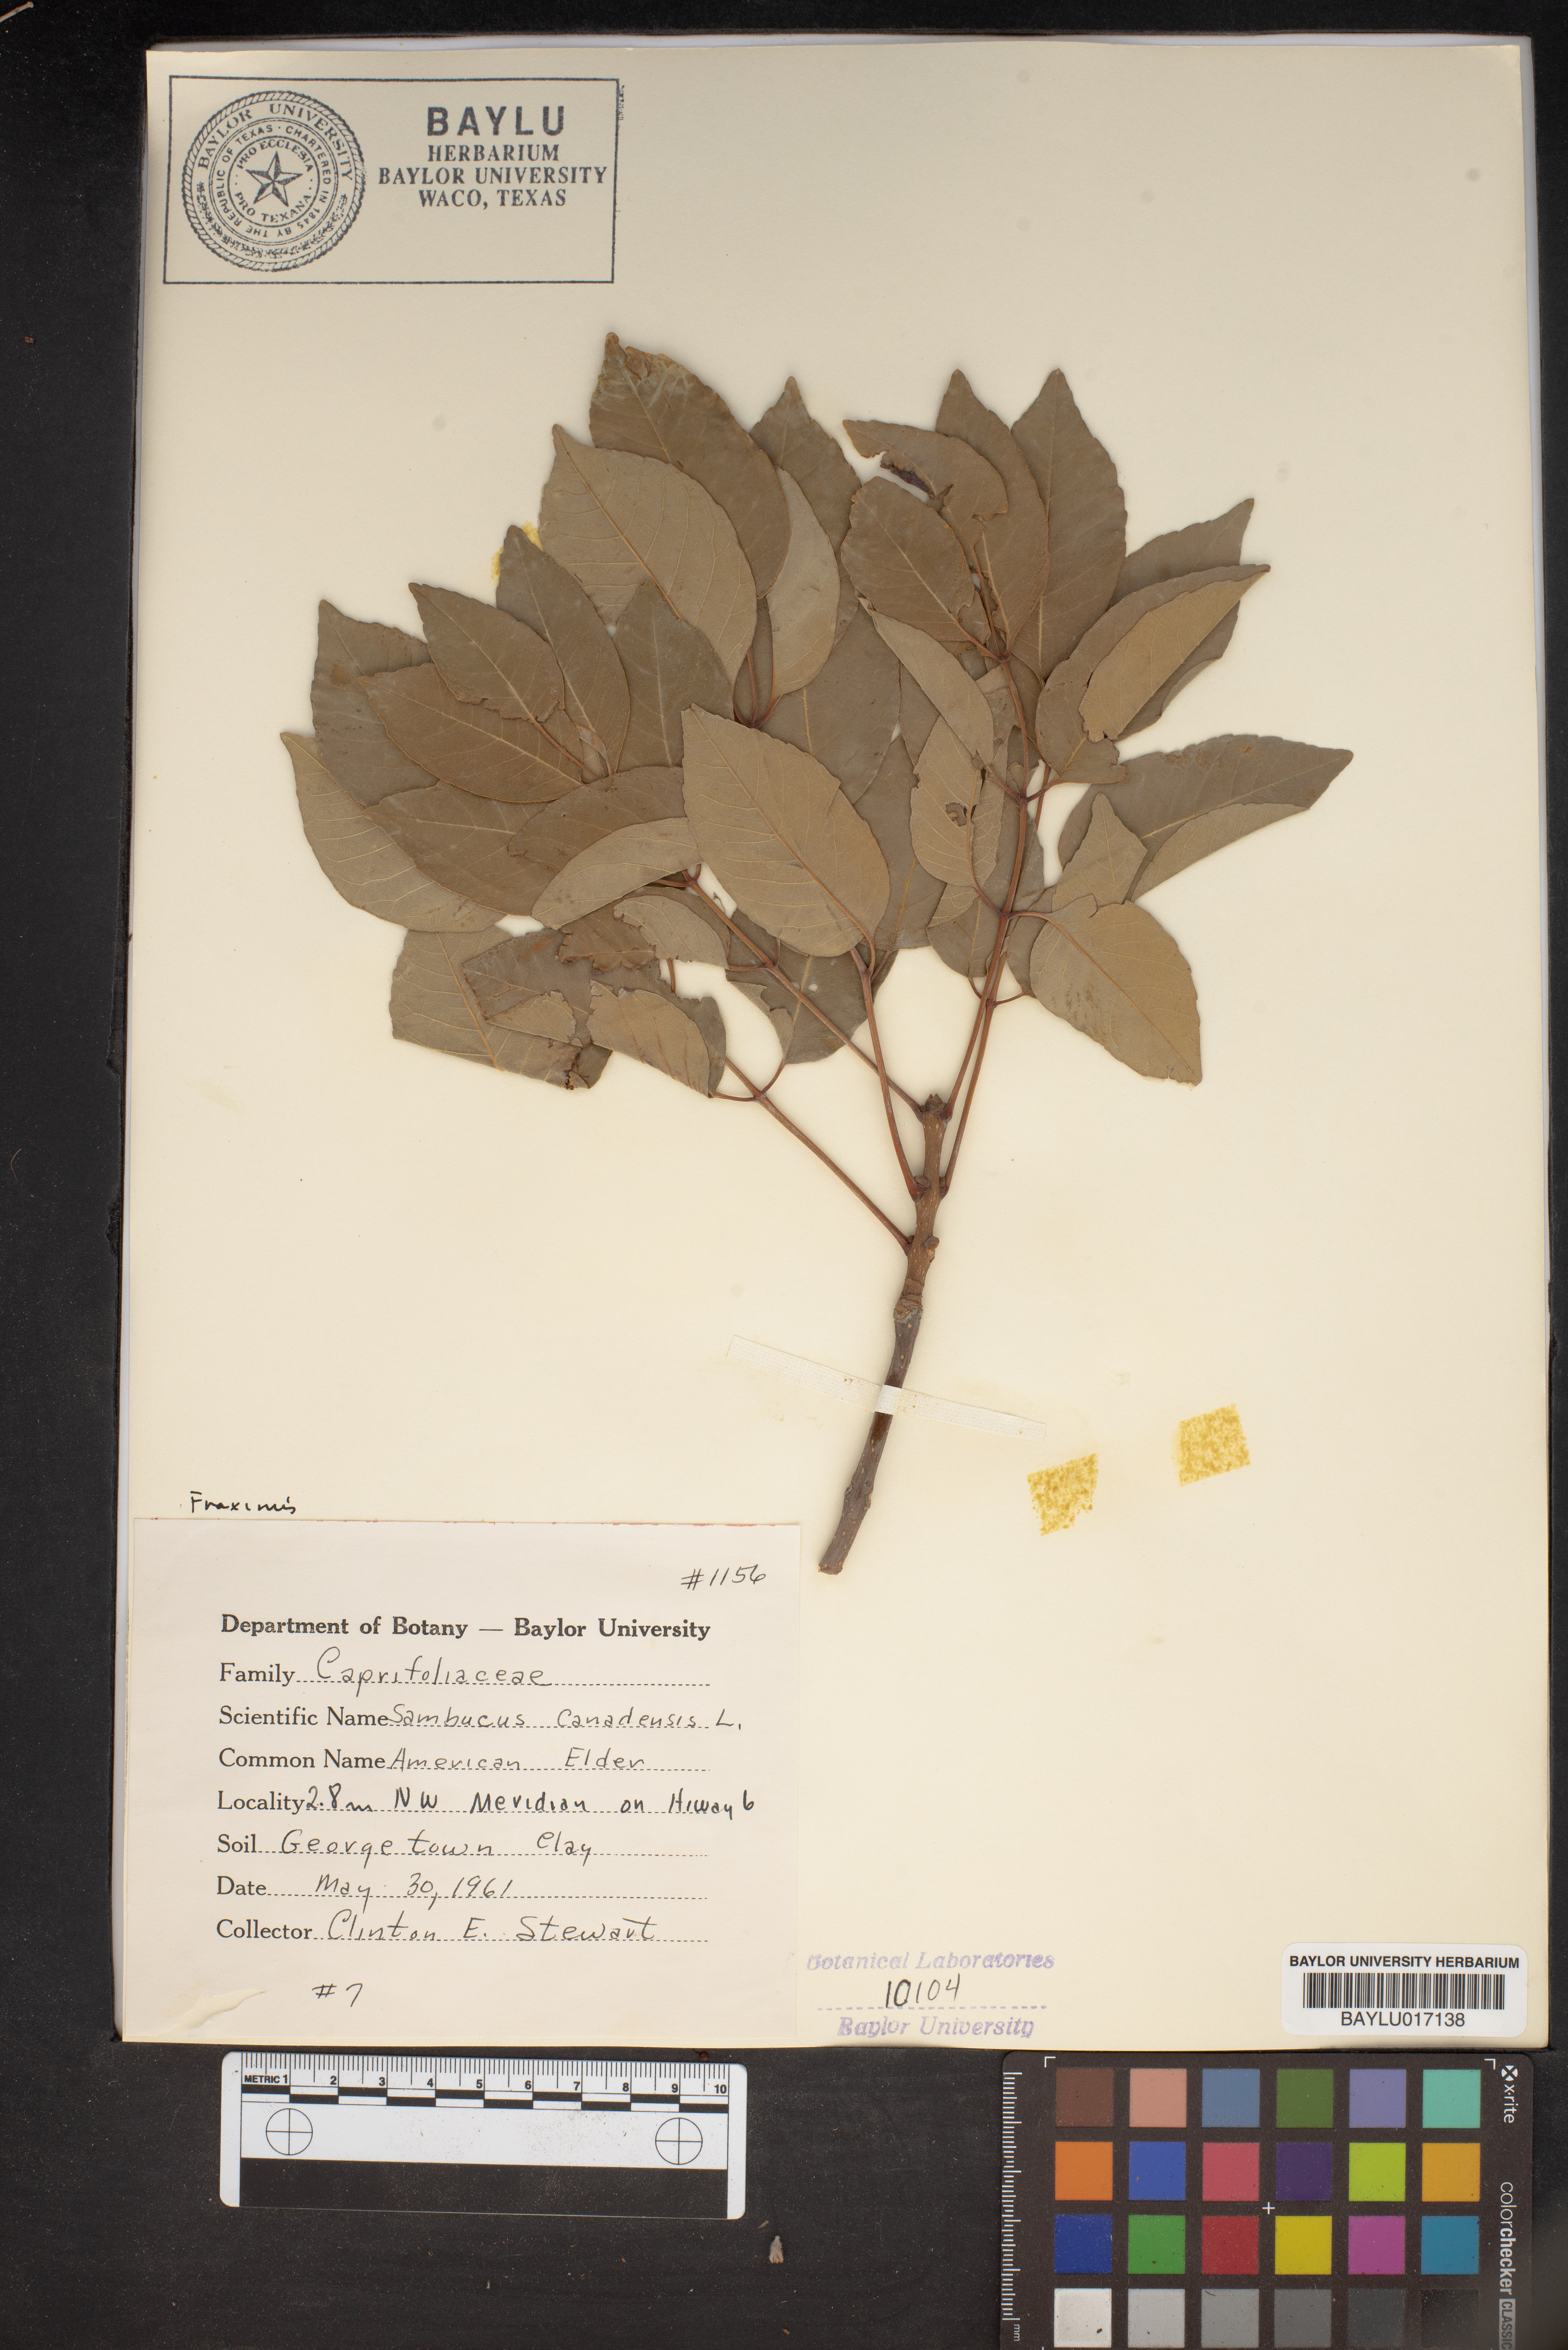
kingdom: Plantae
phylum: Tracheophyta
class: Magnoliopsida
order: Dipsacales
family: Viburnaceae
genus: Sambucus
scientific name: Sambucus canadensis
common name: American elder
